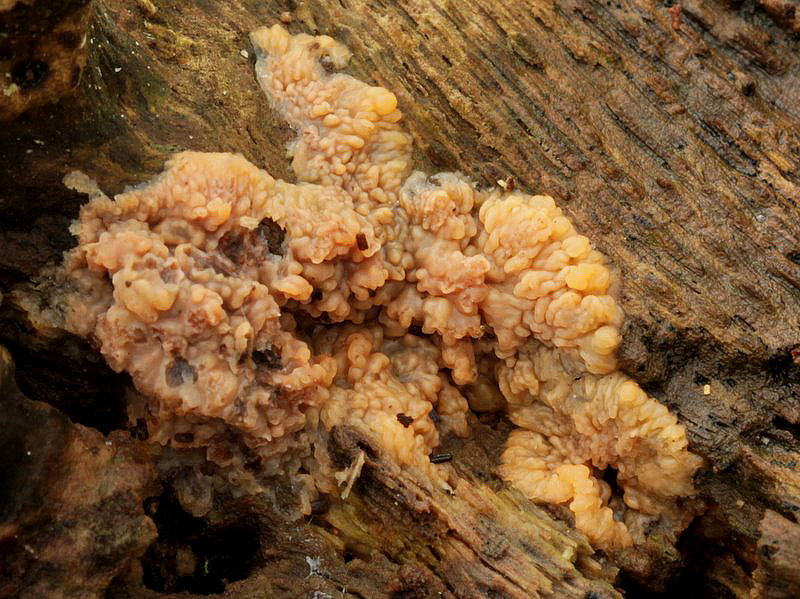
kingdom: Fungi
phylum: Basidiomycota
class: Agaricomycetes
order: Polyporales
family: Meruliaceae
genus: Phlebia
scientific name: Phlebia radiata
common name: stråle-åresvamp
